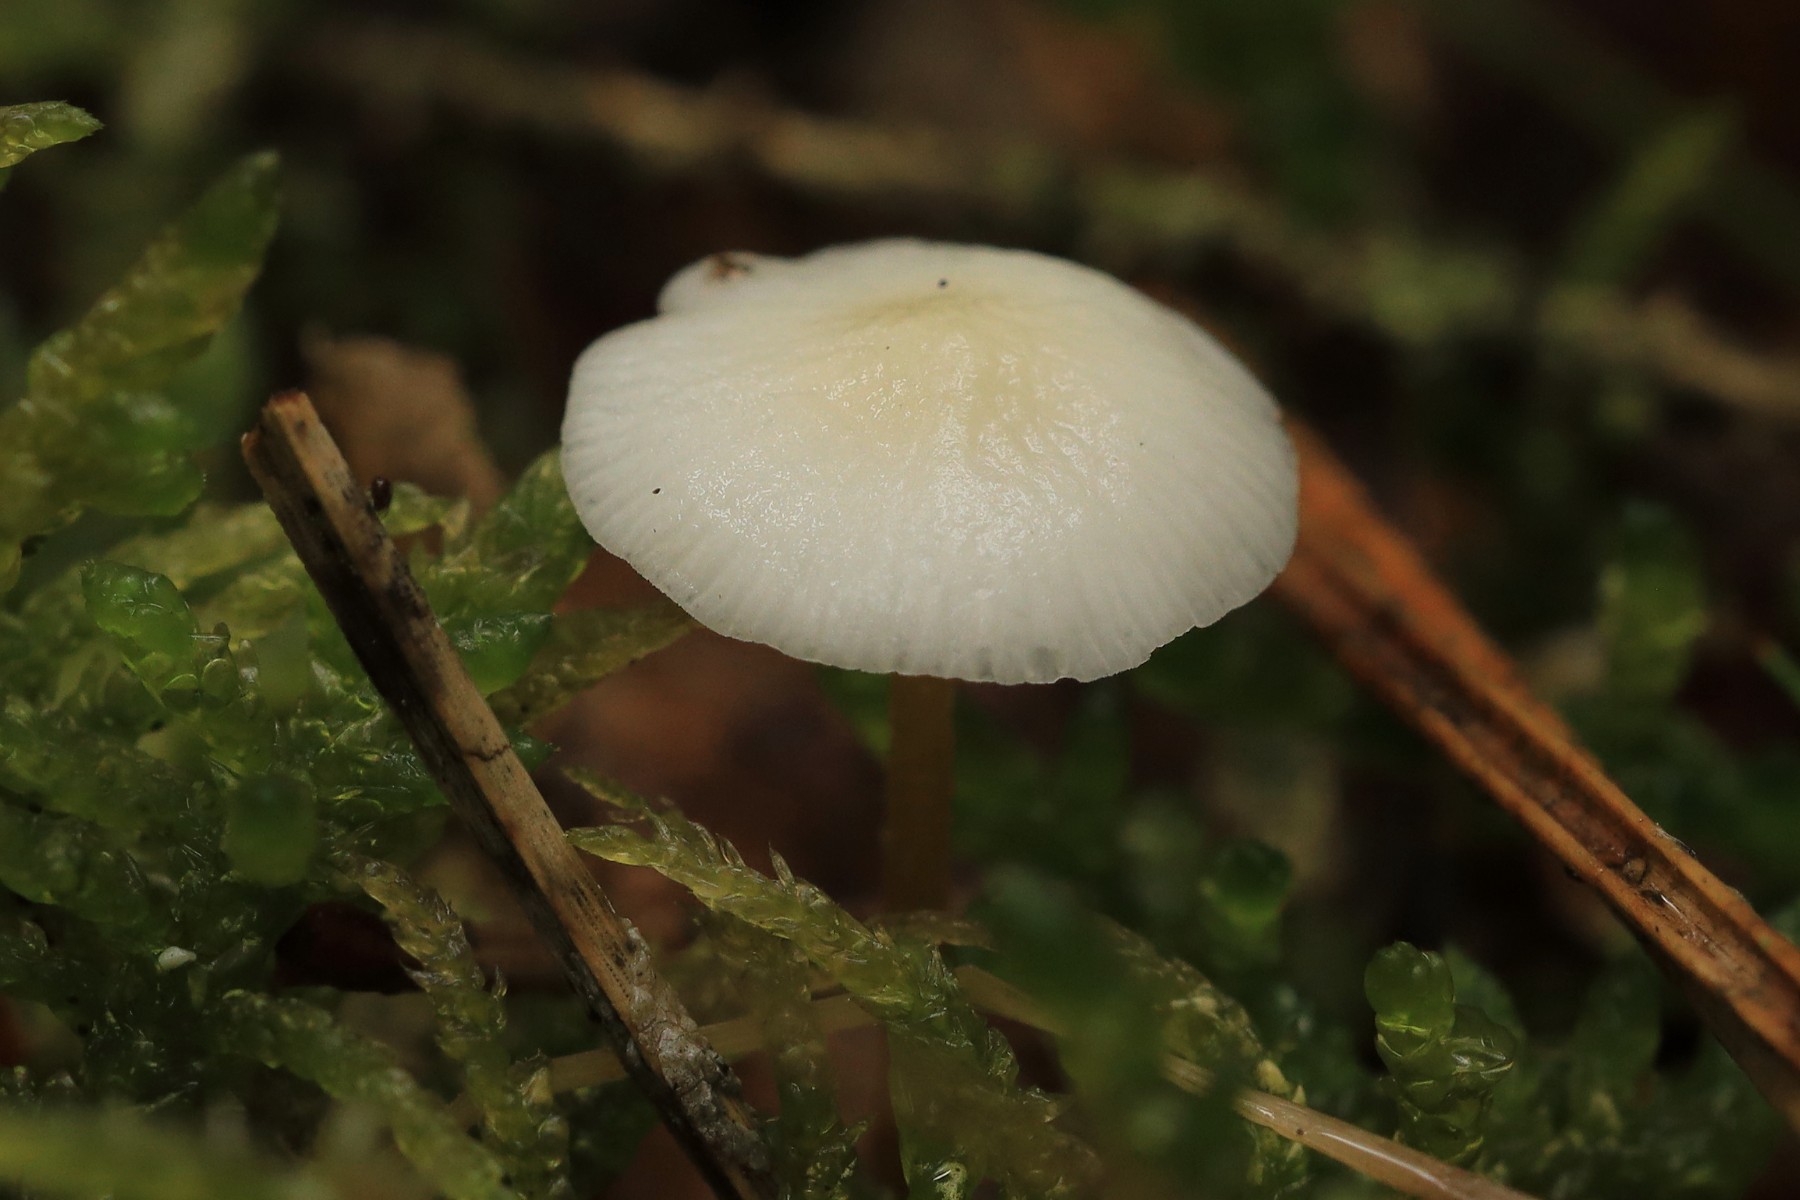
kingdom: Fungi
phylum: Basidiomycota
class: Agaricomycetes
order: Agaricales
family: Physalacriaceae
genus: Strobilurus
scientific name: Strobilurus tenacellus
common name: sommer-koglehat
